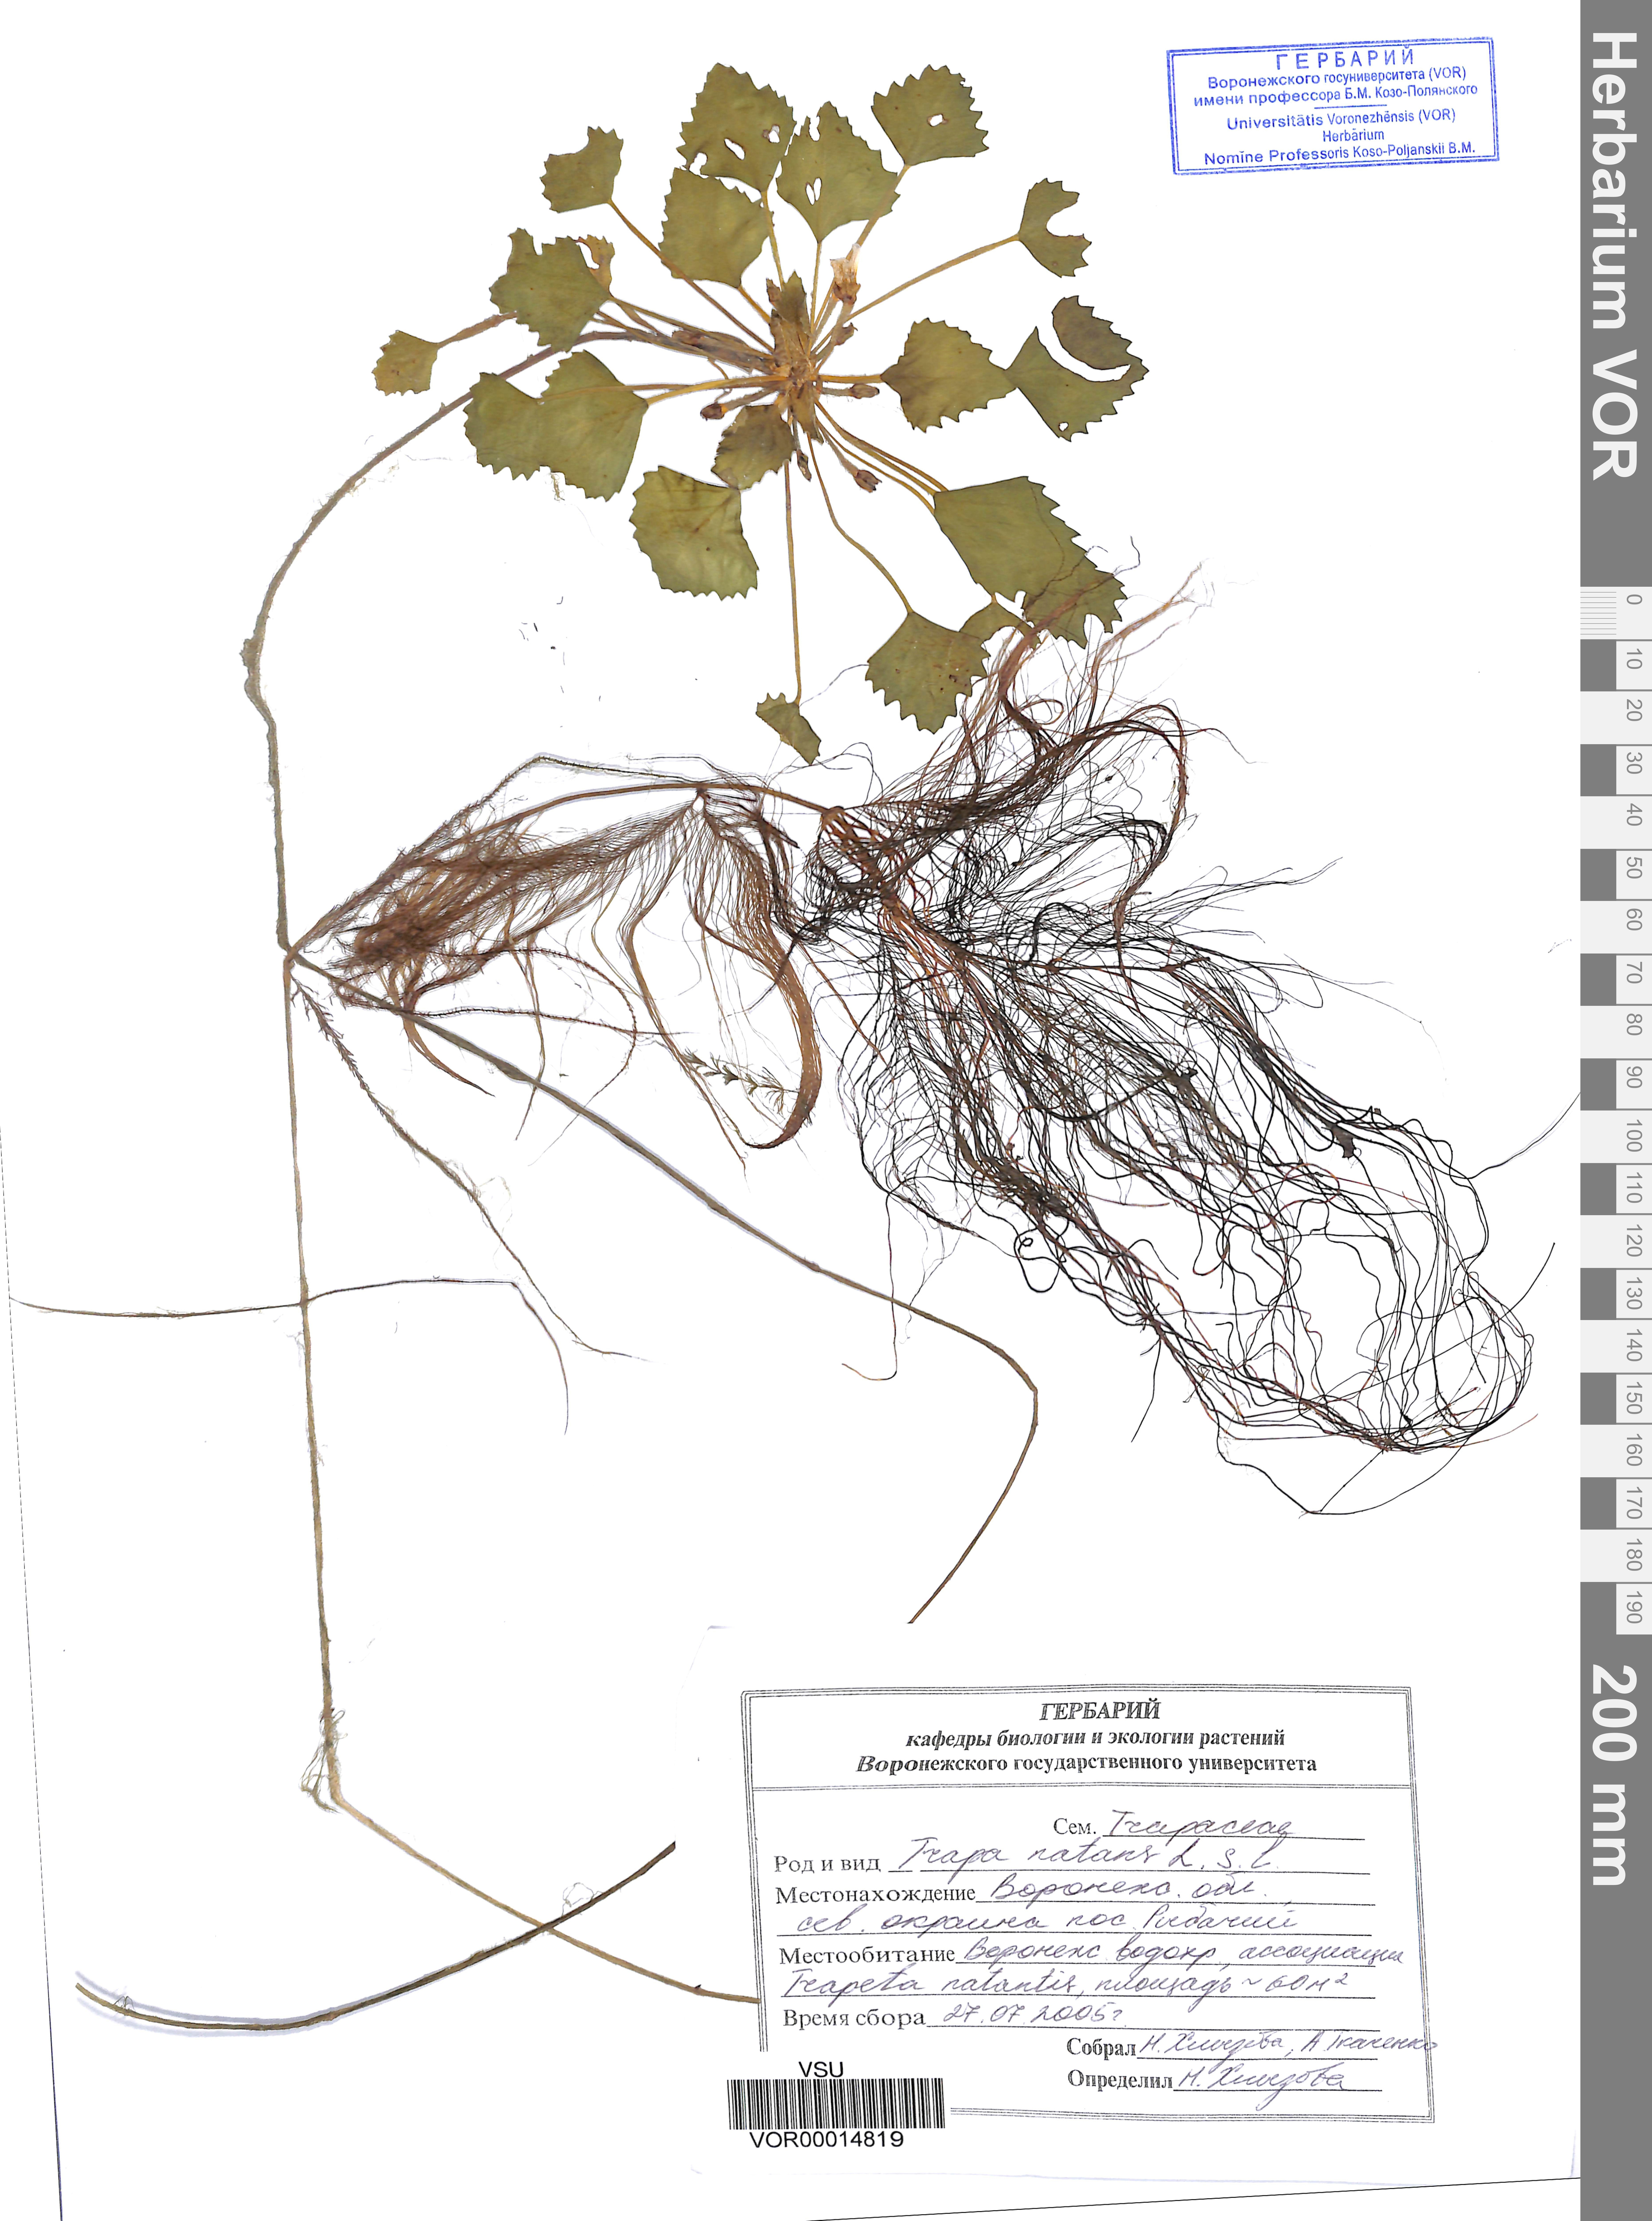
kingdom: Plantae
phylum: Tracheophyta
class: Magnoliopsida
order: Myrtales
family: Lythraceae
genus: Trapa
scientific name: Trapa natans
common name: Water chestnut
